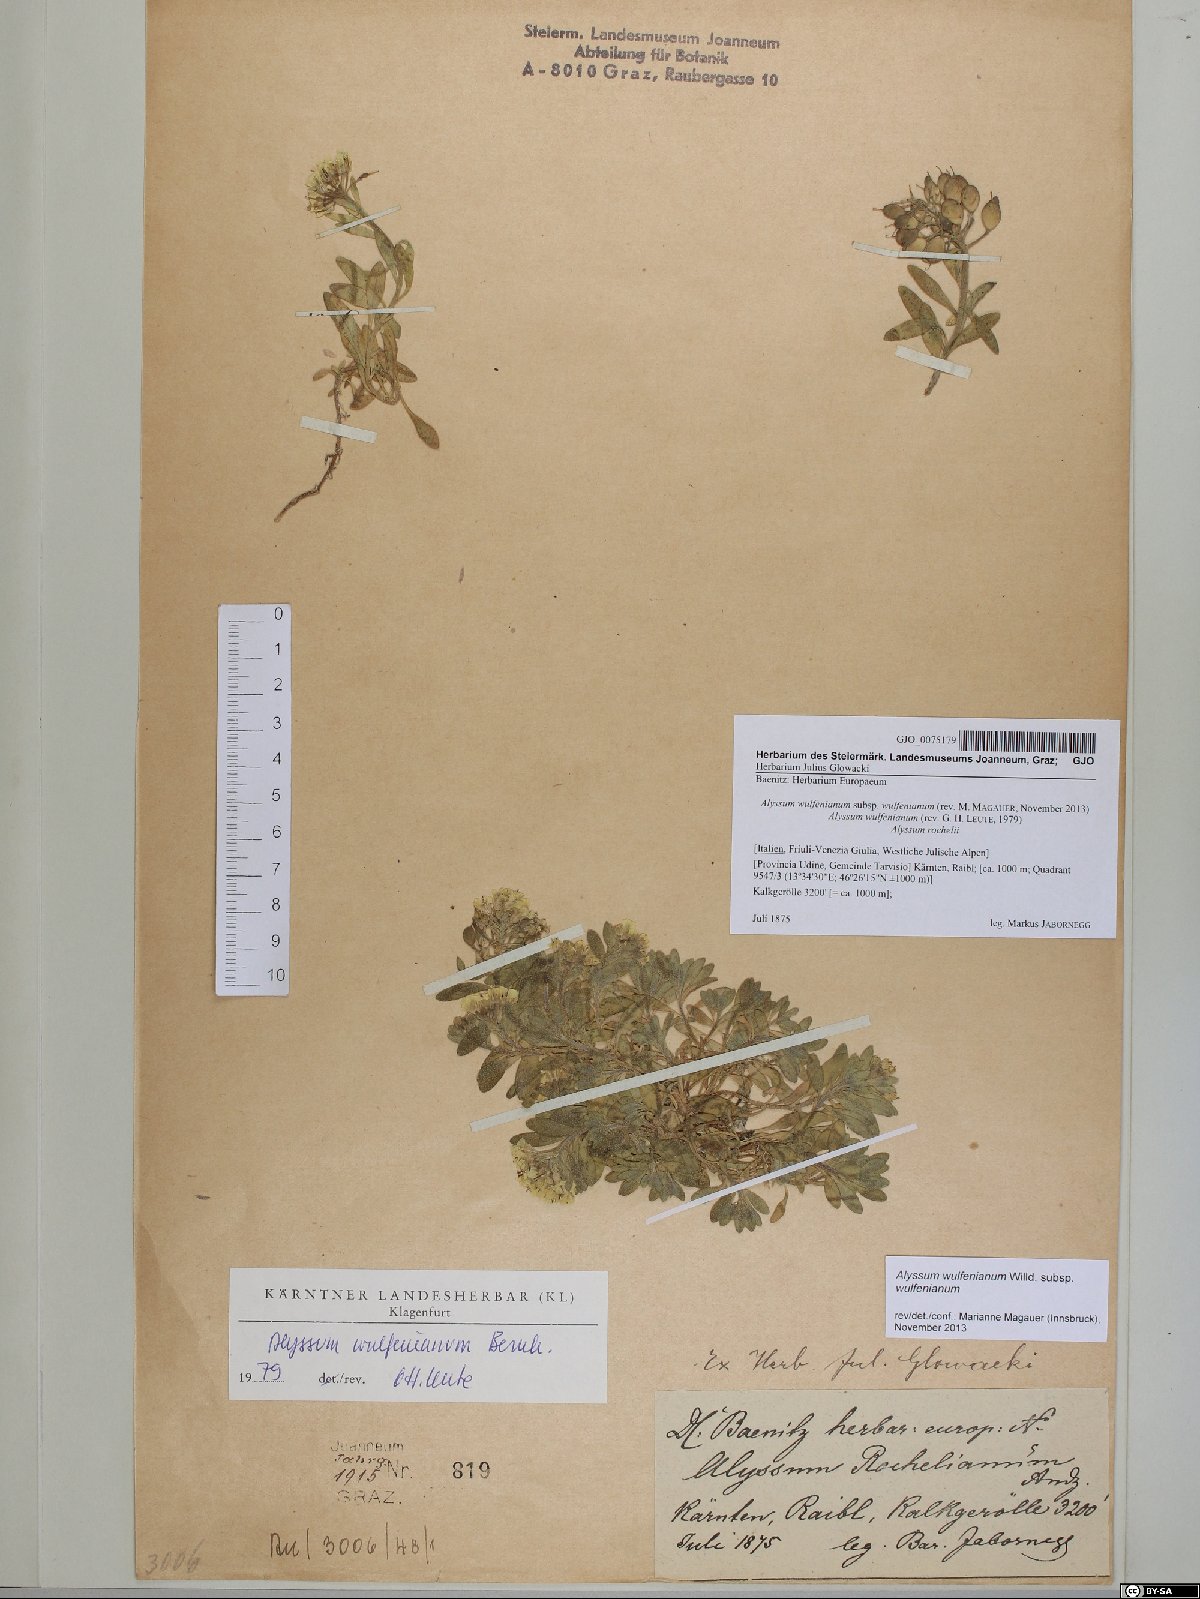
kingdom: Plantae
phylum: Tracheophyta
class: Magnoliopsida
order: Brassicales
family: Brassicaceae
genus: Alyssum
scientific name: Alyssum wulfenianum
